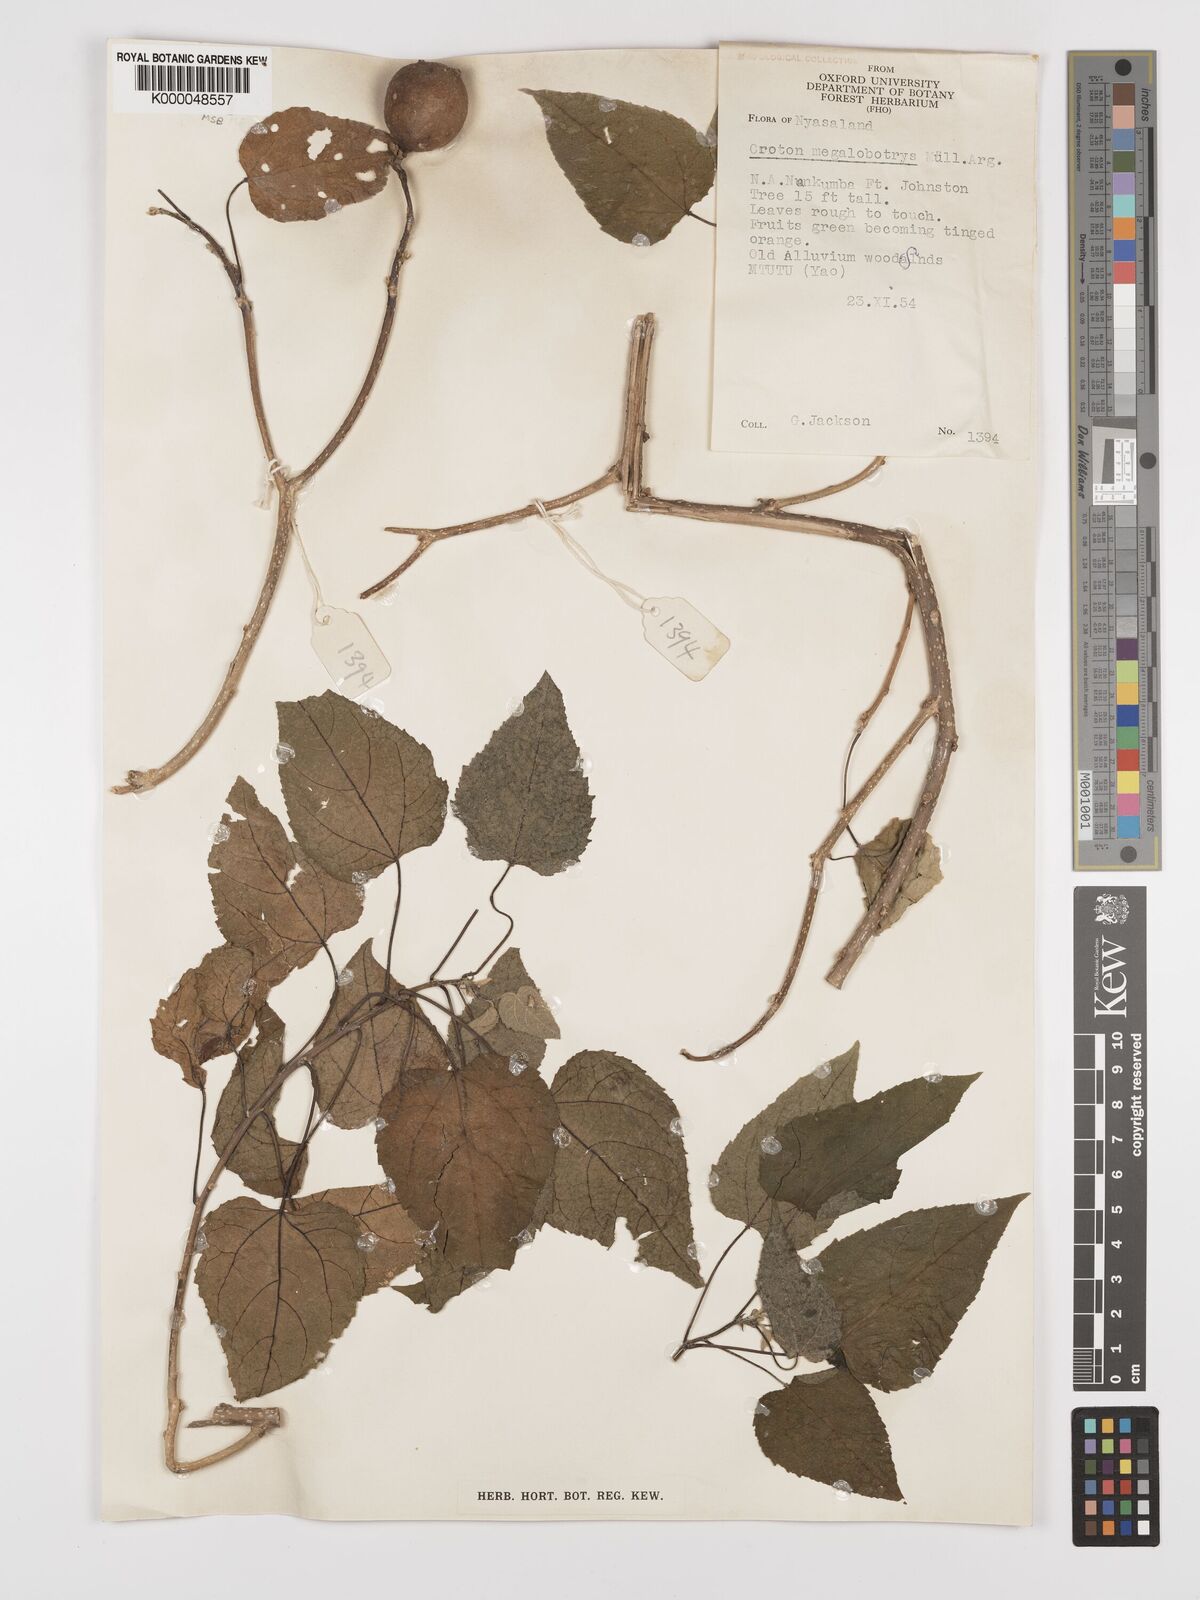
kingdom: Plantae
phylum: Tracheophyta
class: Magnoliopsida
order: Malpighiales
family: Euphorbiaceae
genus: Croton
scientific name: Croton
